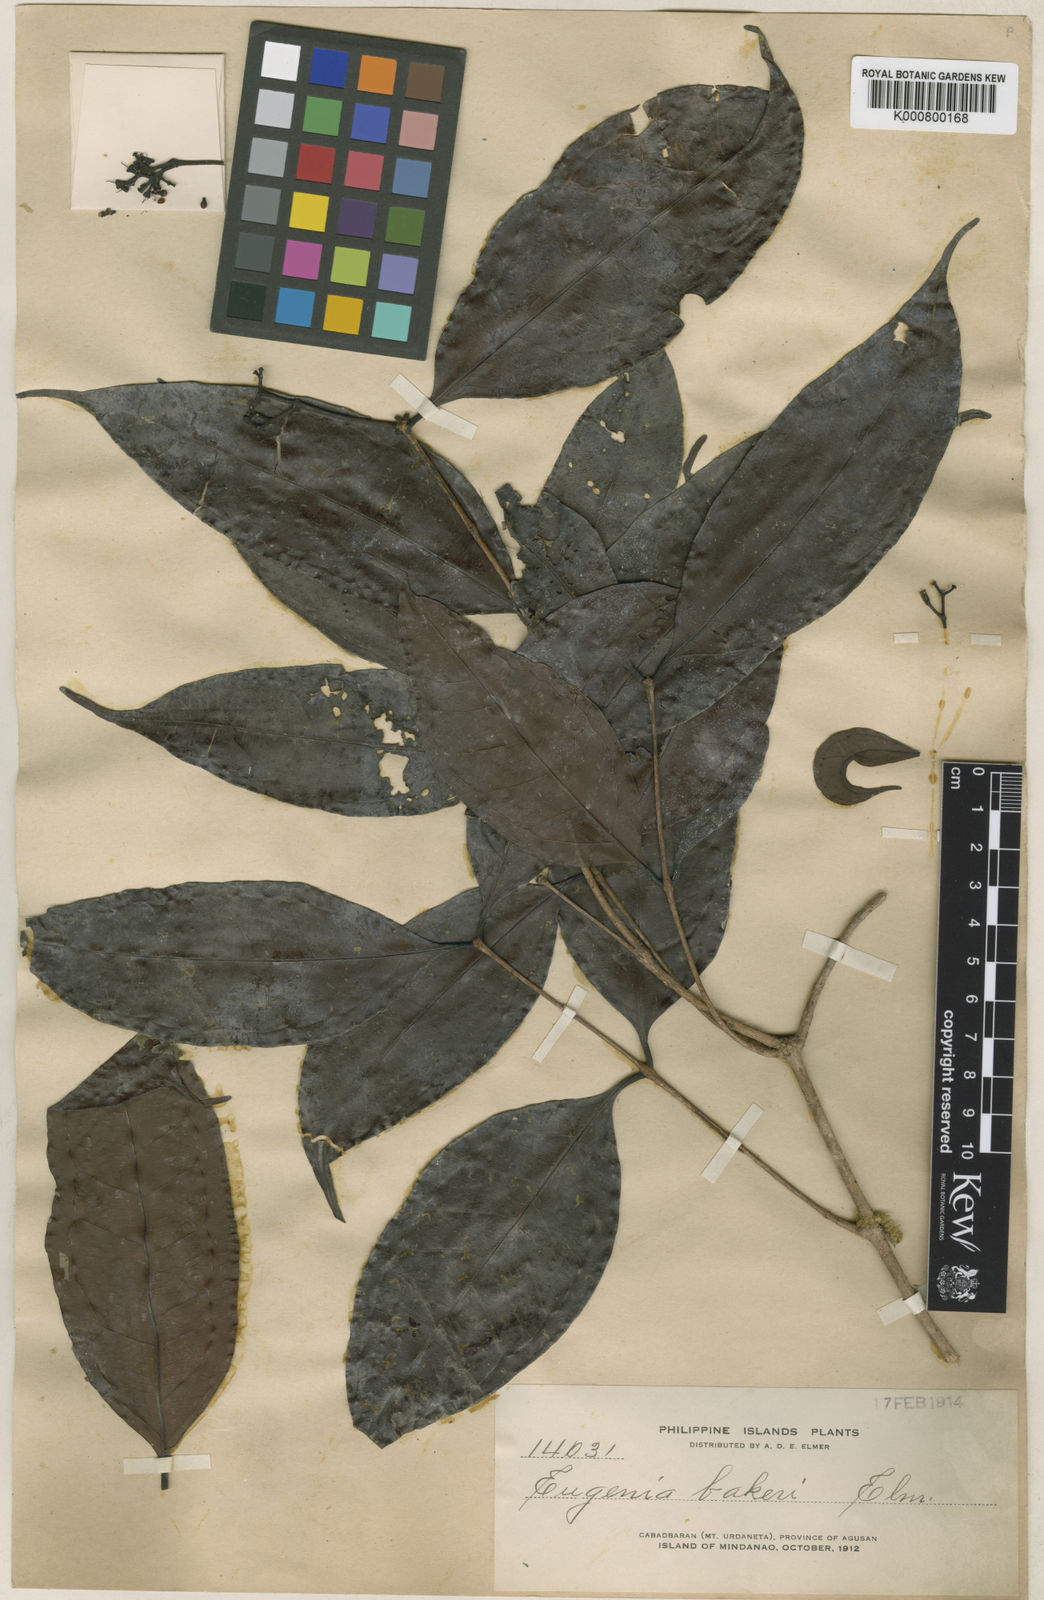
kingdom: Plantae
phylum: Tracheophyta
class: Magnoliopsida
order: Myrtales
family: Myrtaceae
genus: Syzygium
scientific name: Syzygium astronioides
